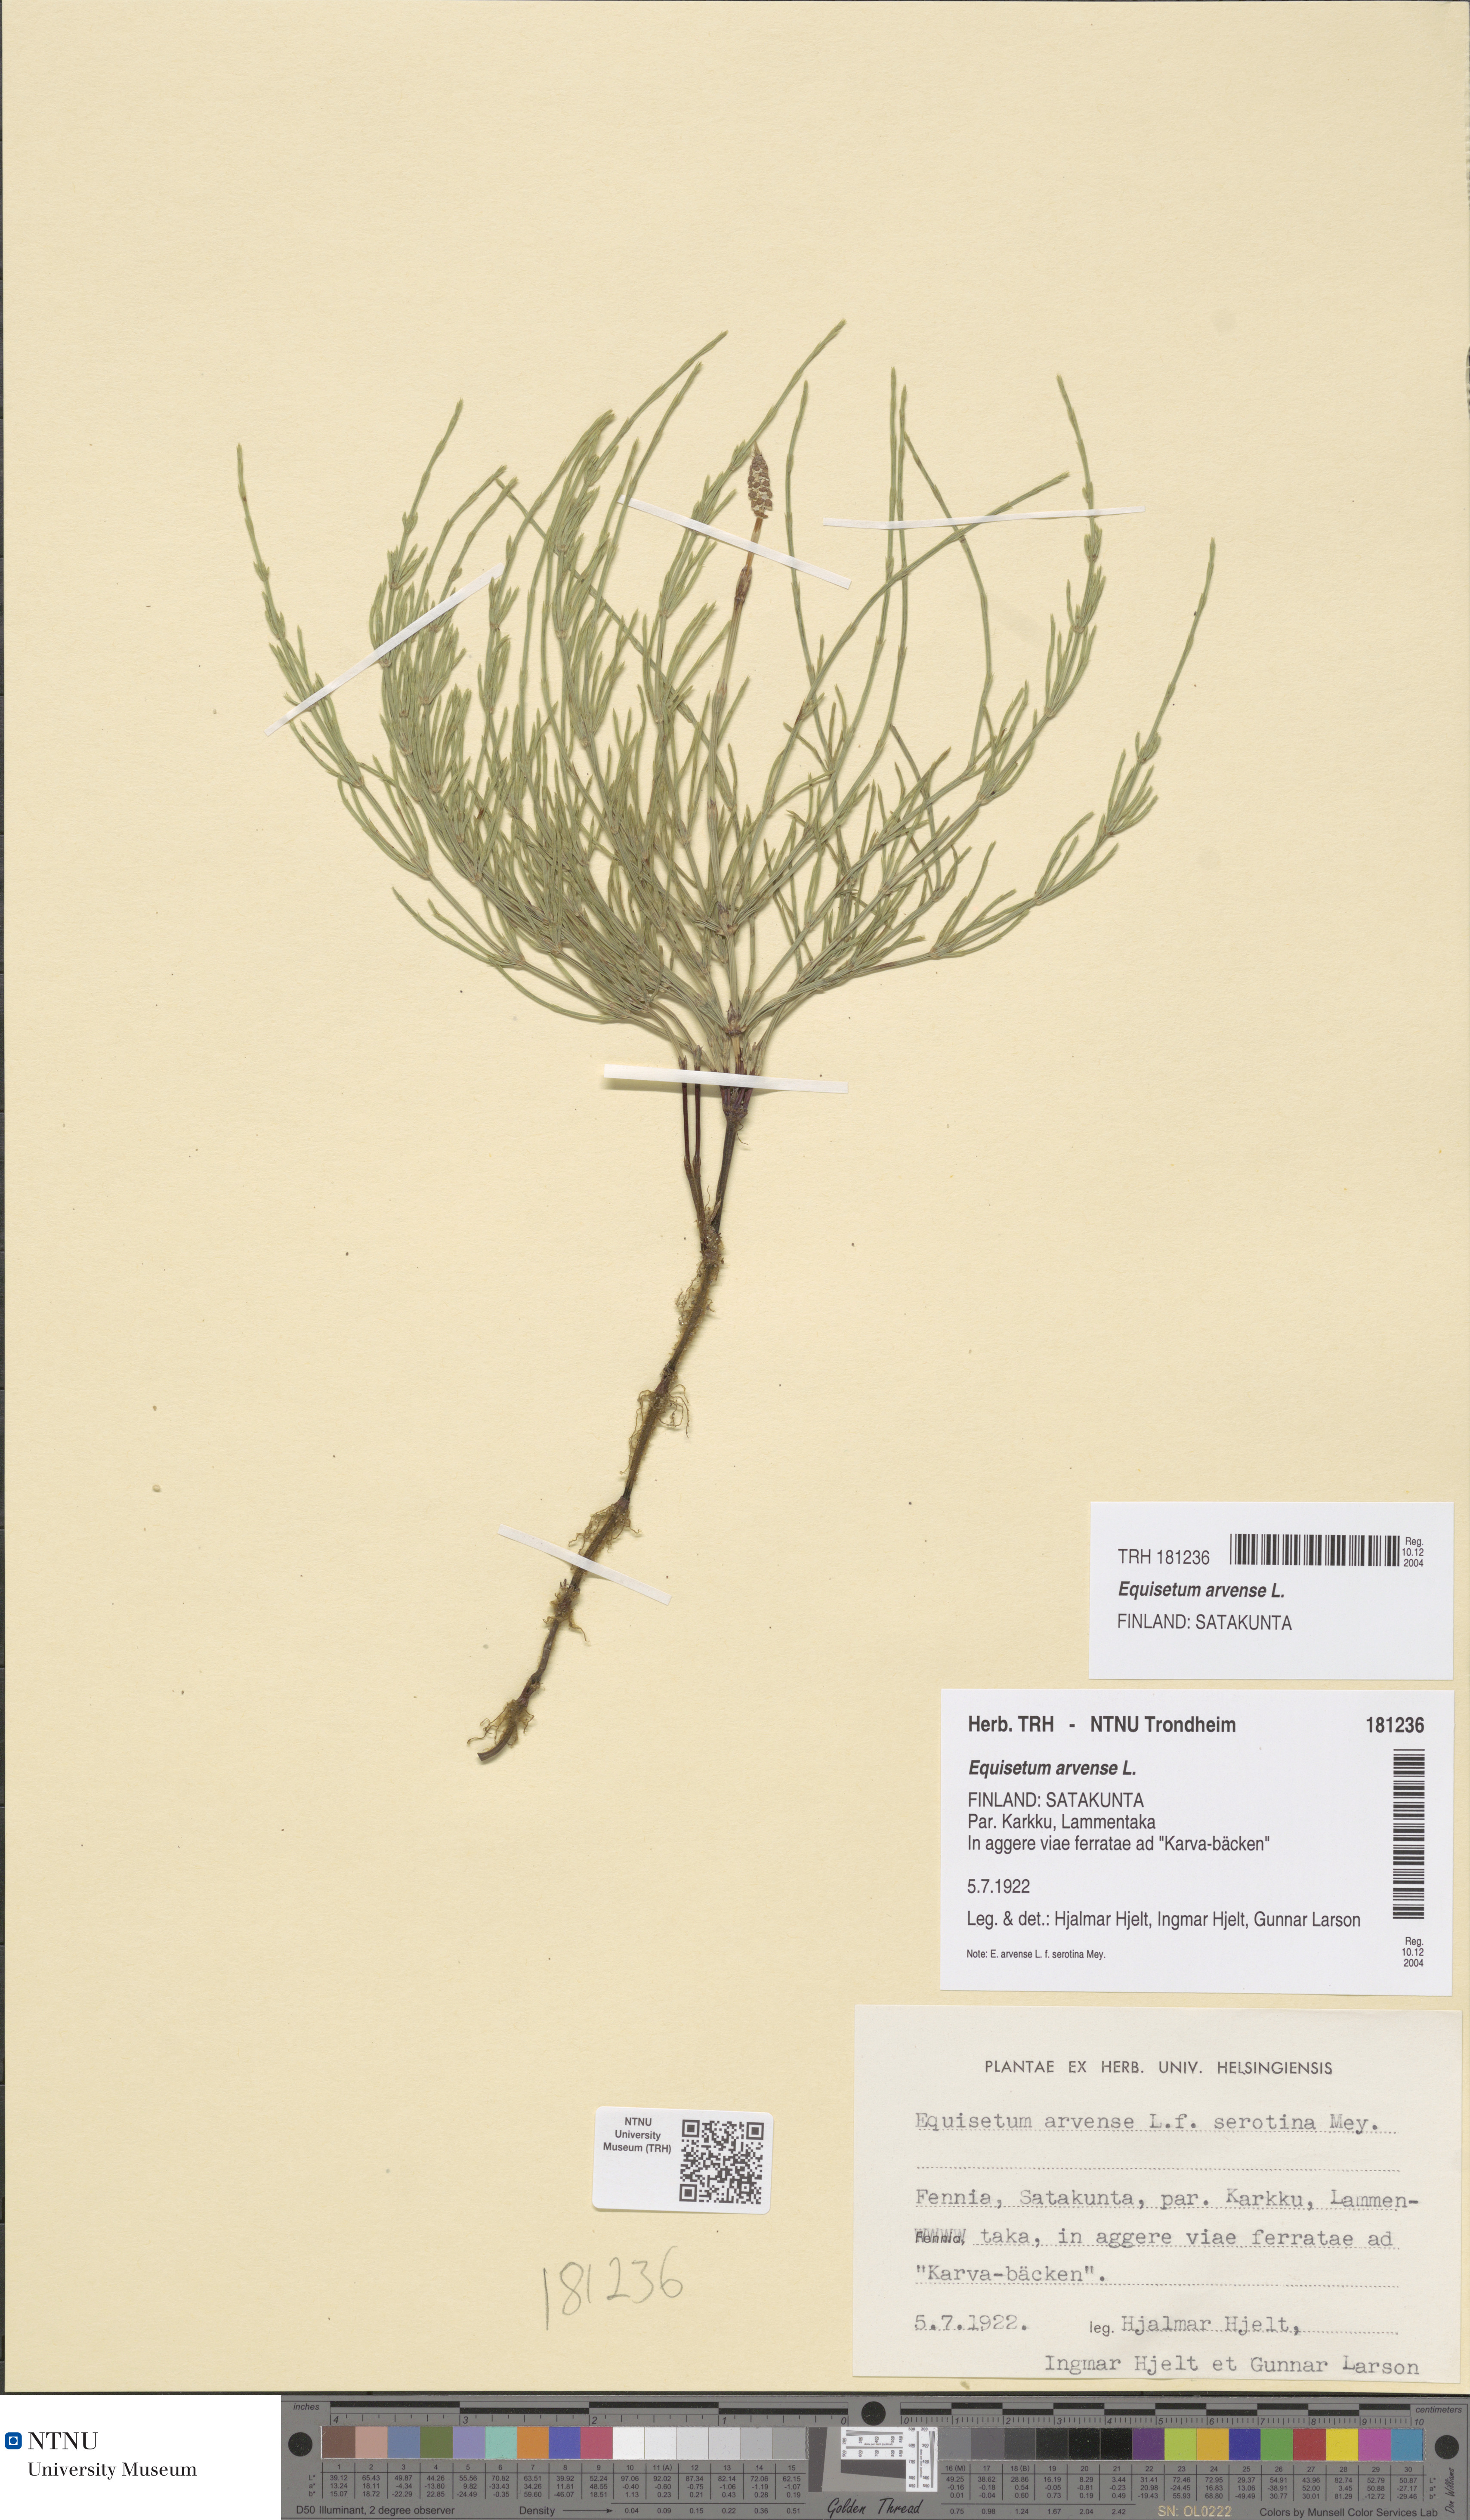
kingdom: Plantae
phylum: Tracheophyta
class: Polypodiopsida
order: Equisetales
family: Equisetaceae
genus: Equisetum
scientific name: Equisetum arvense
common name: Field horsetail
